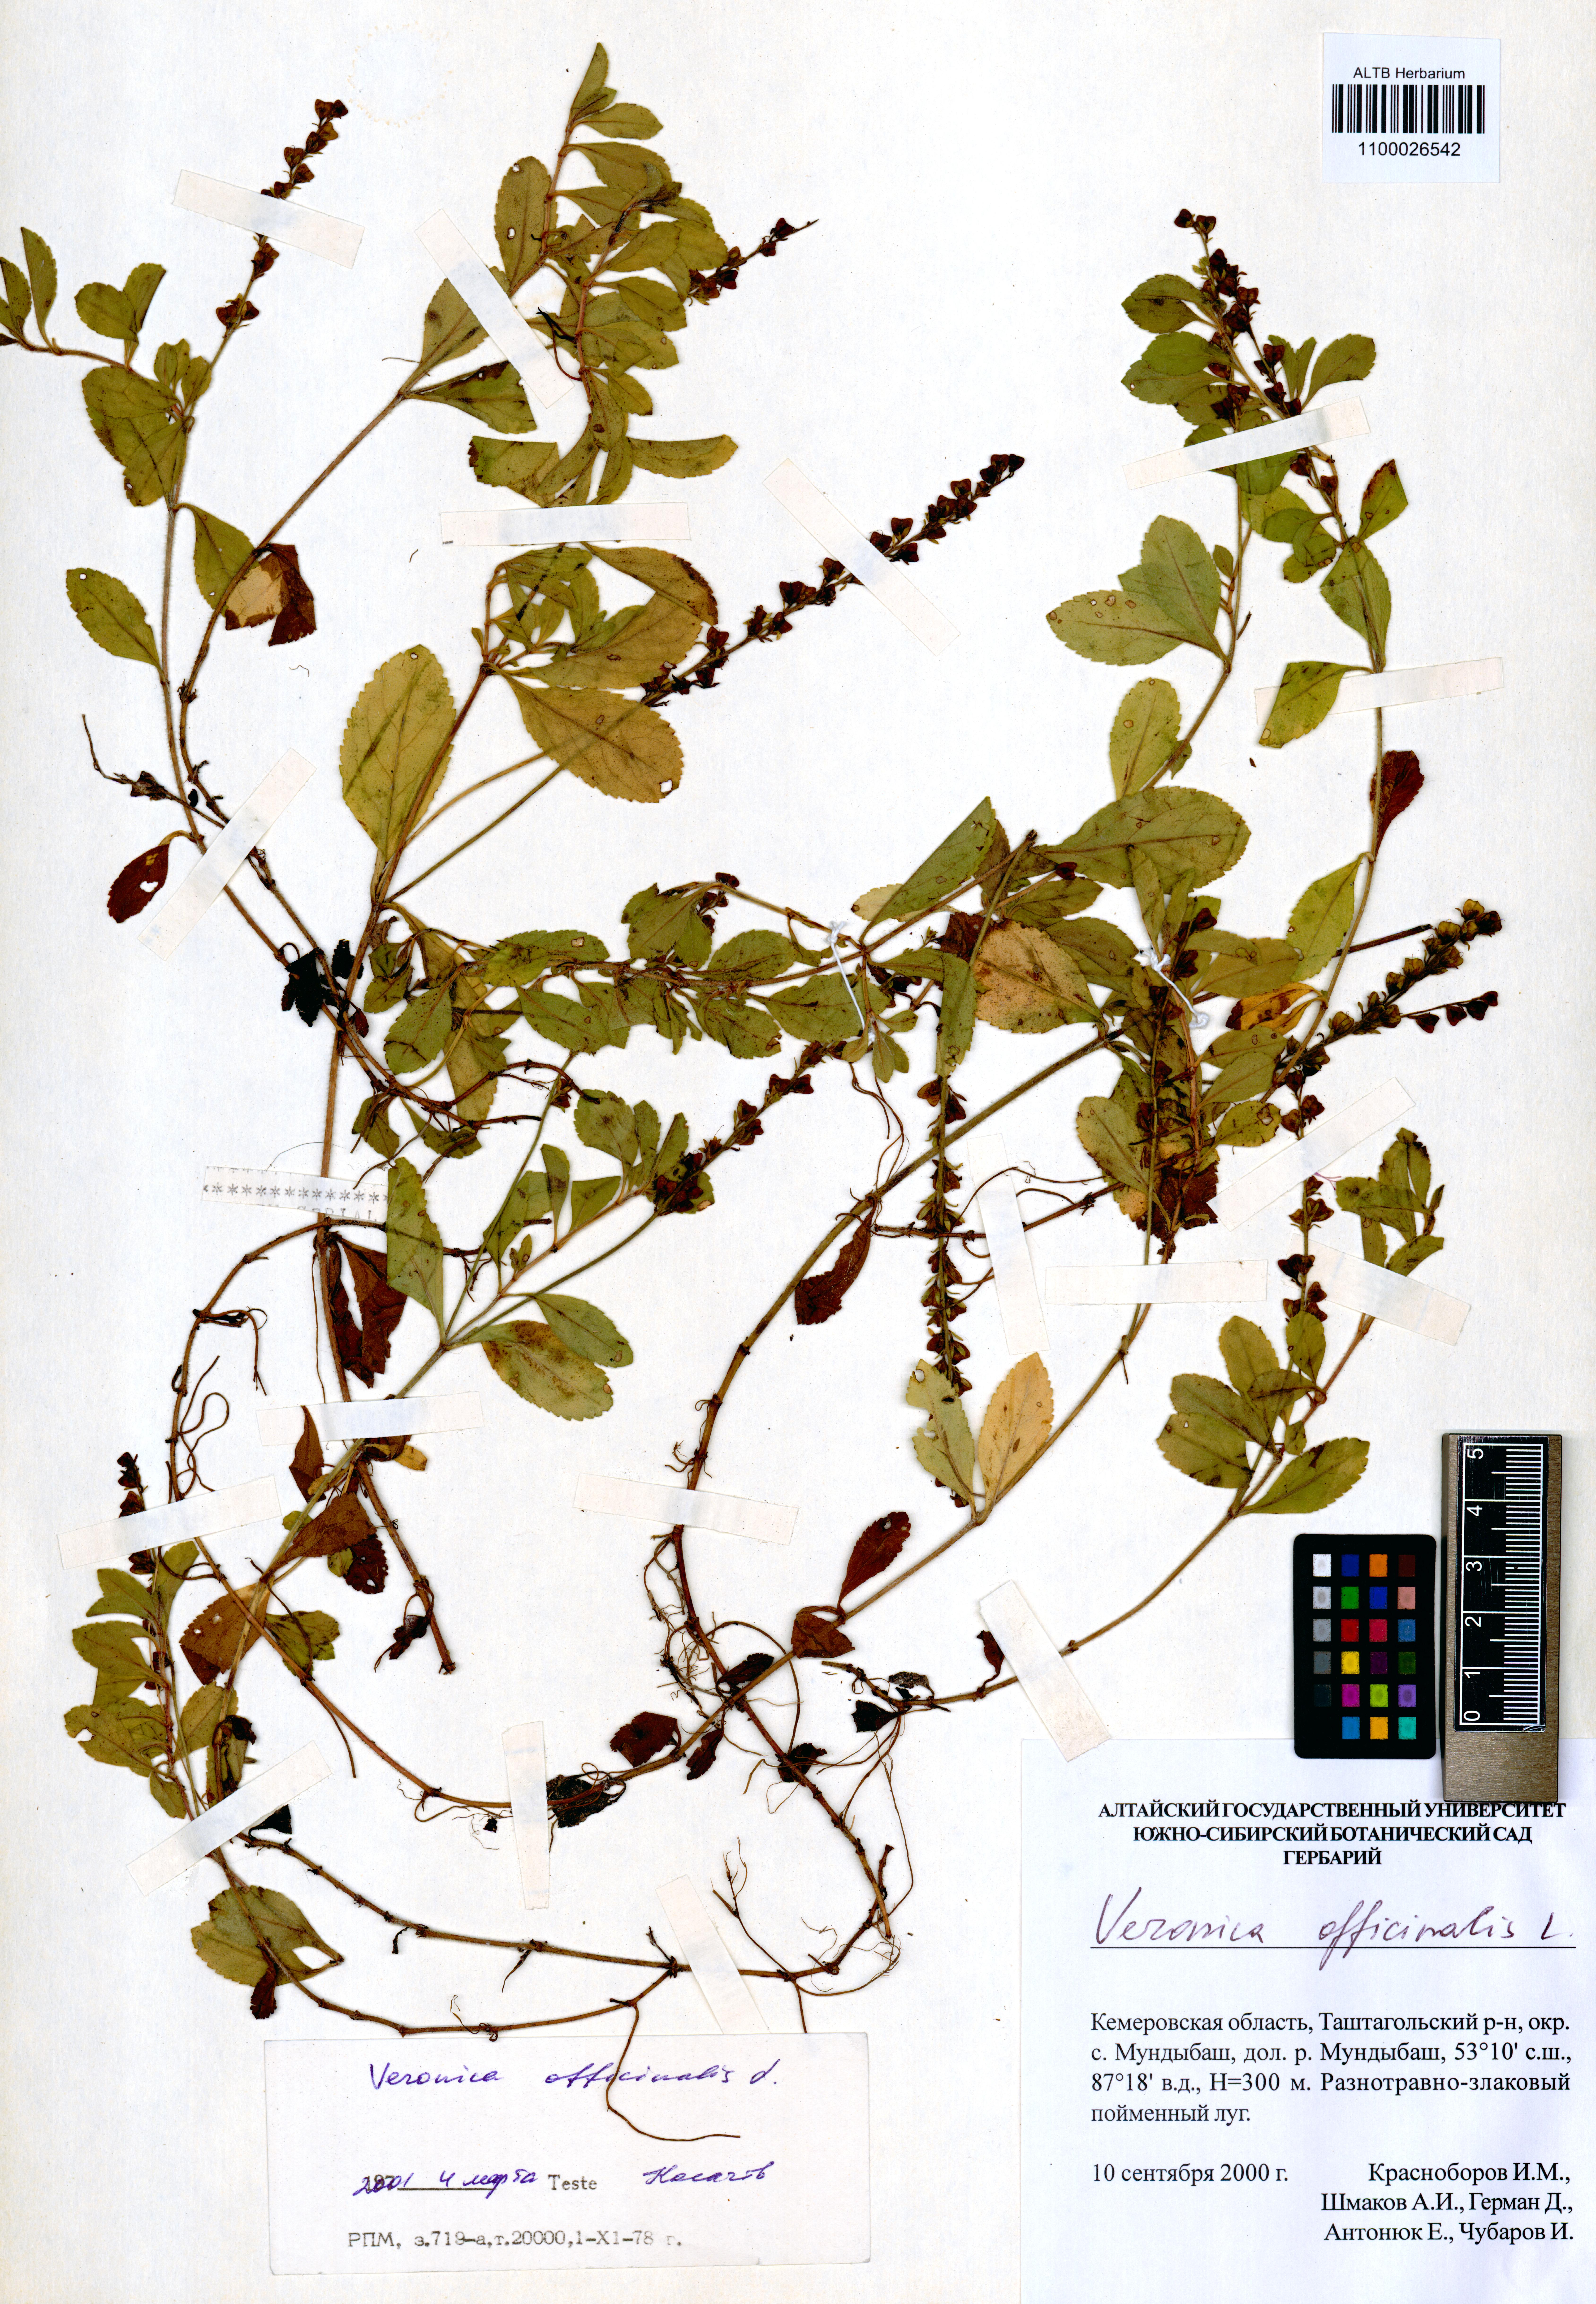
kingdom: Plantae
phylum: Tracheophyta
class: Magnoliopsida
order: Lamiales
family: Plantaginaceae
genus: Veronica
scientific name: Veronica officinalis
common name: Common speedwell
